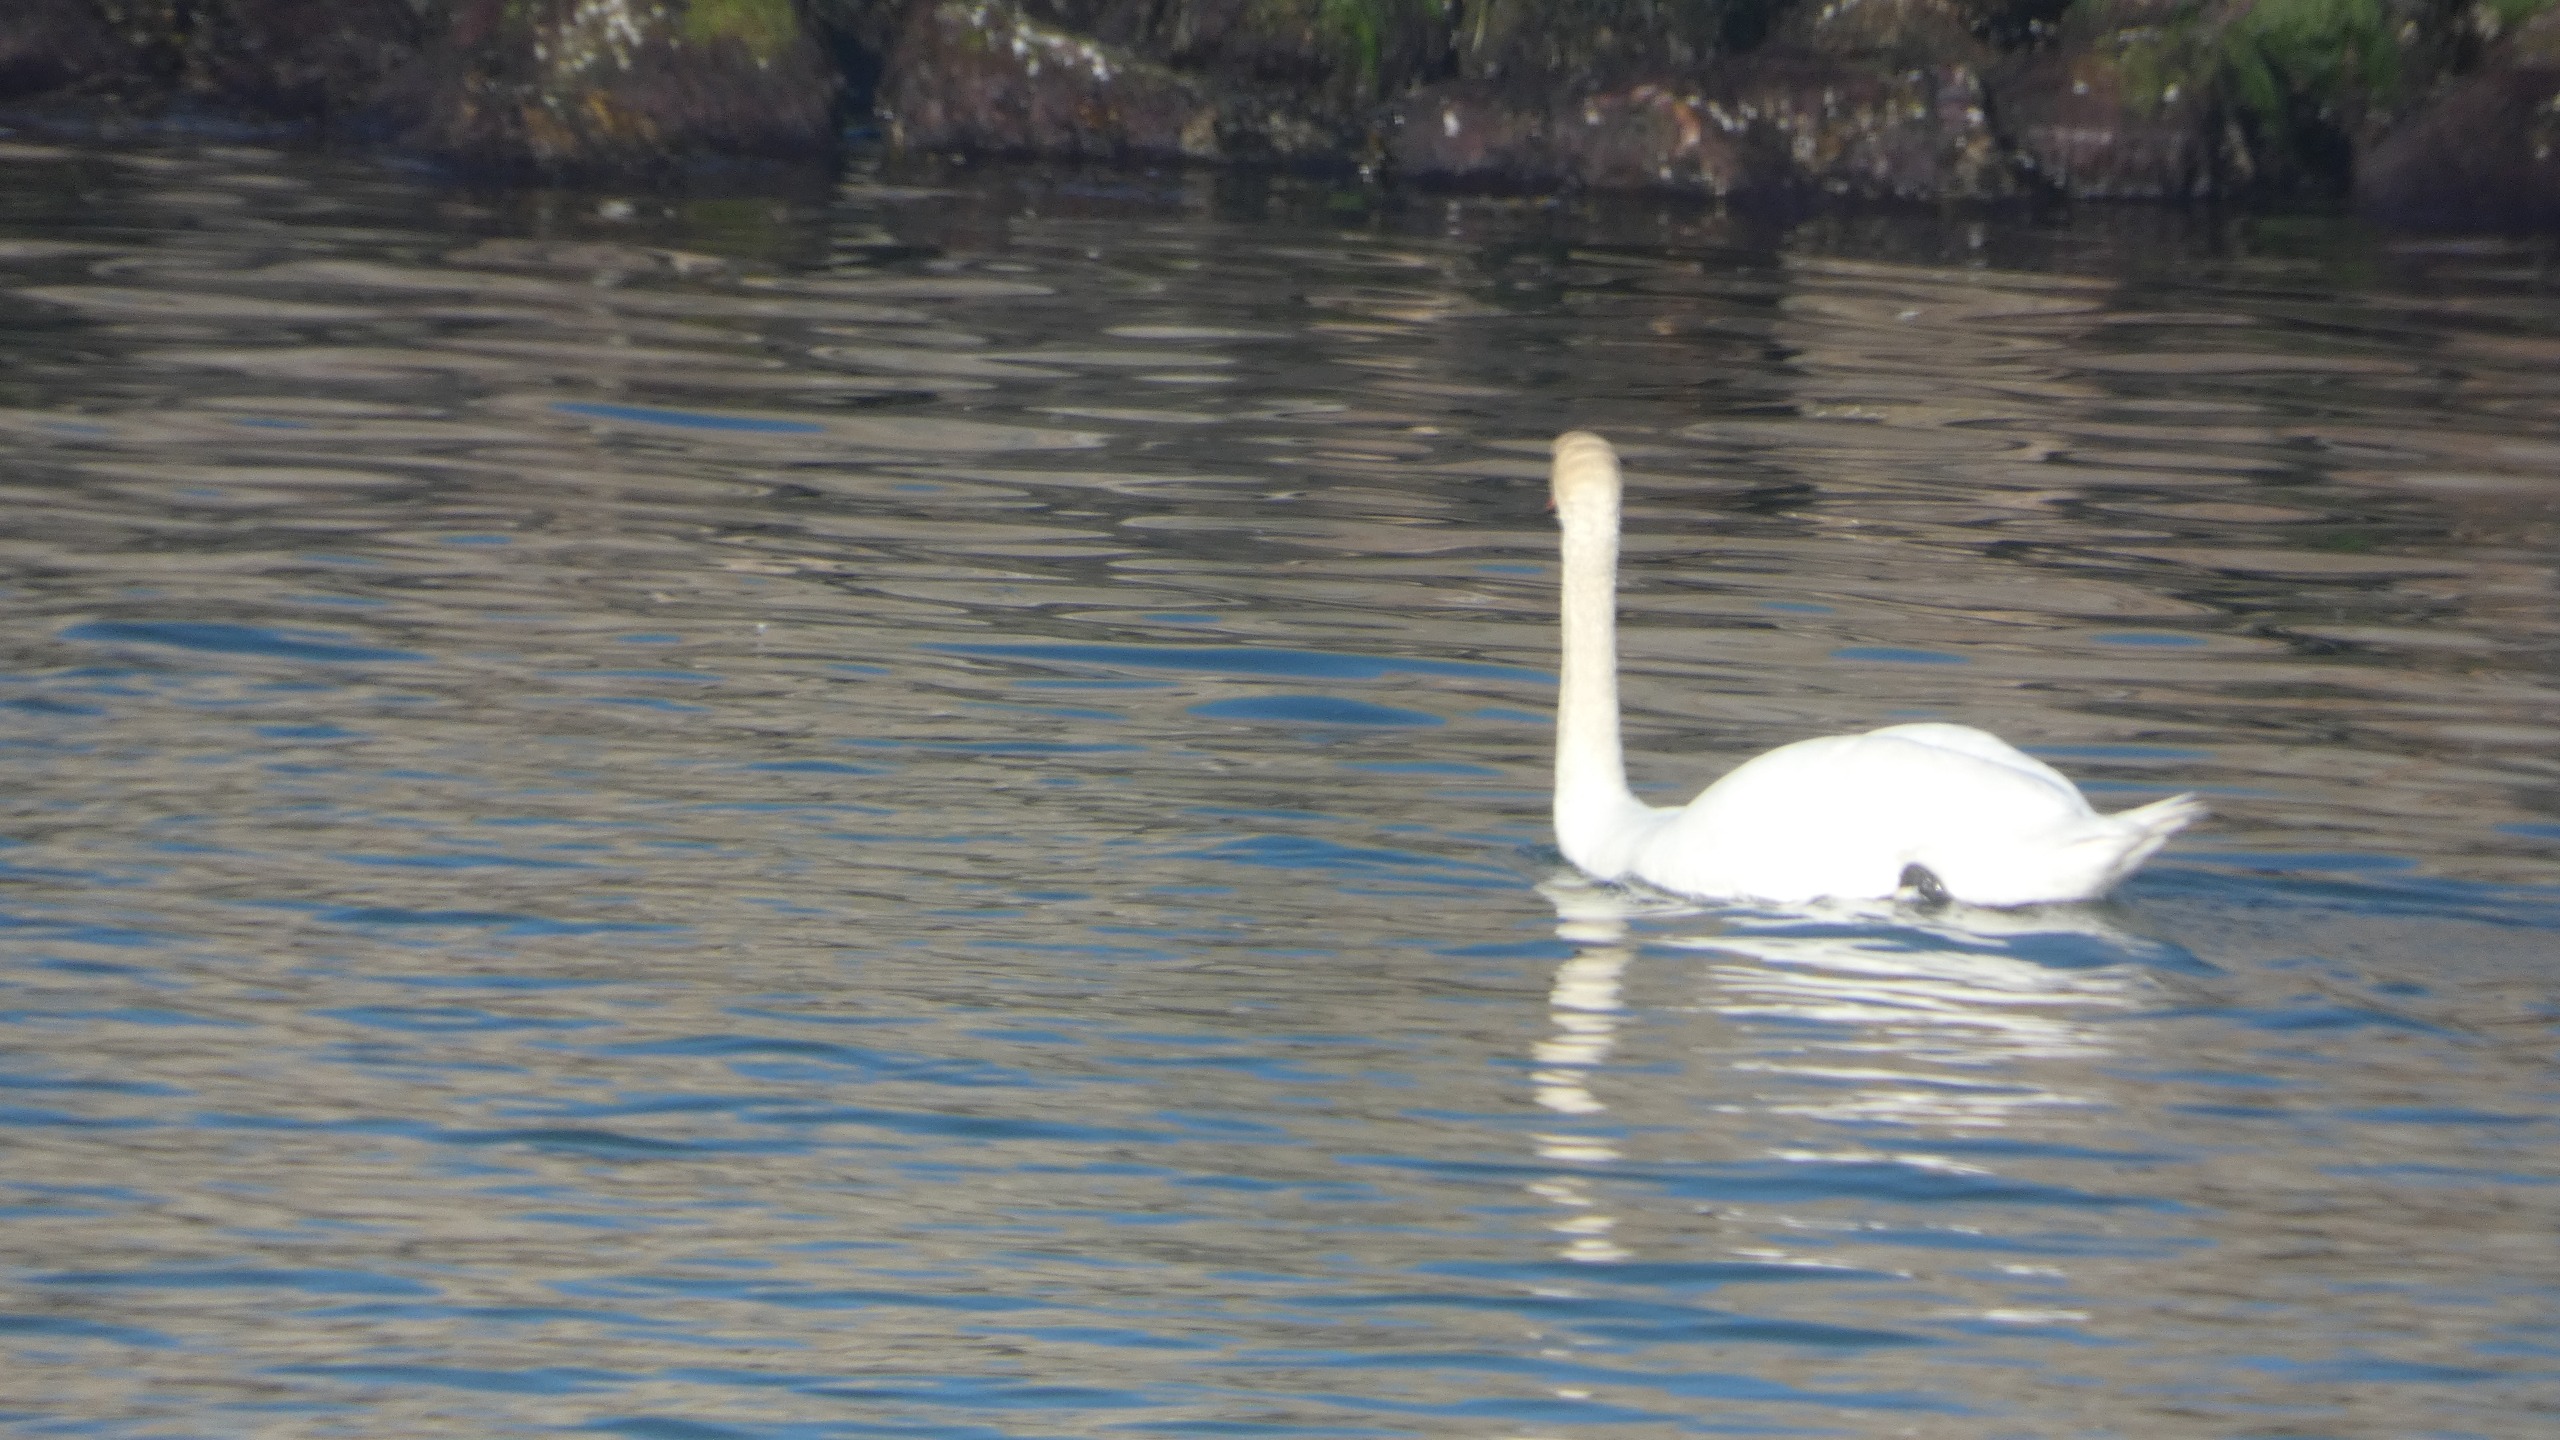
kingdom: Animalia
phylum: Chordata
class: Aves
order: Anseriformes
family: Anatidae
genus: Cygnus
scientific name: Cygnus olor
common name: Knopsvane
